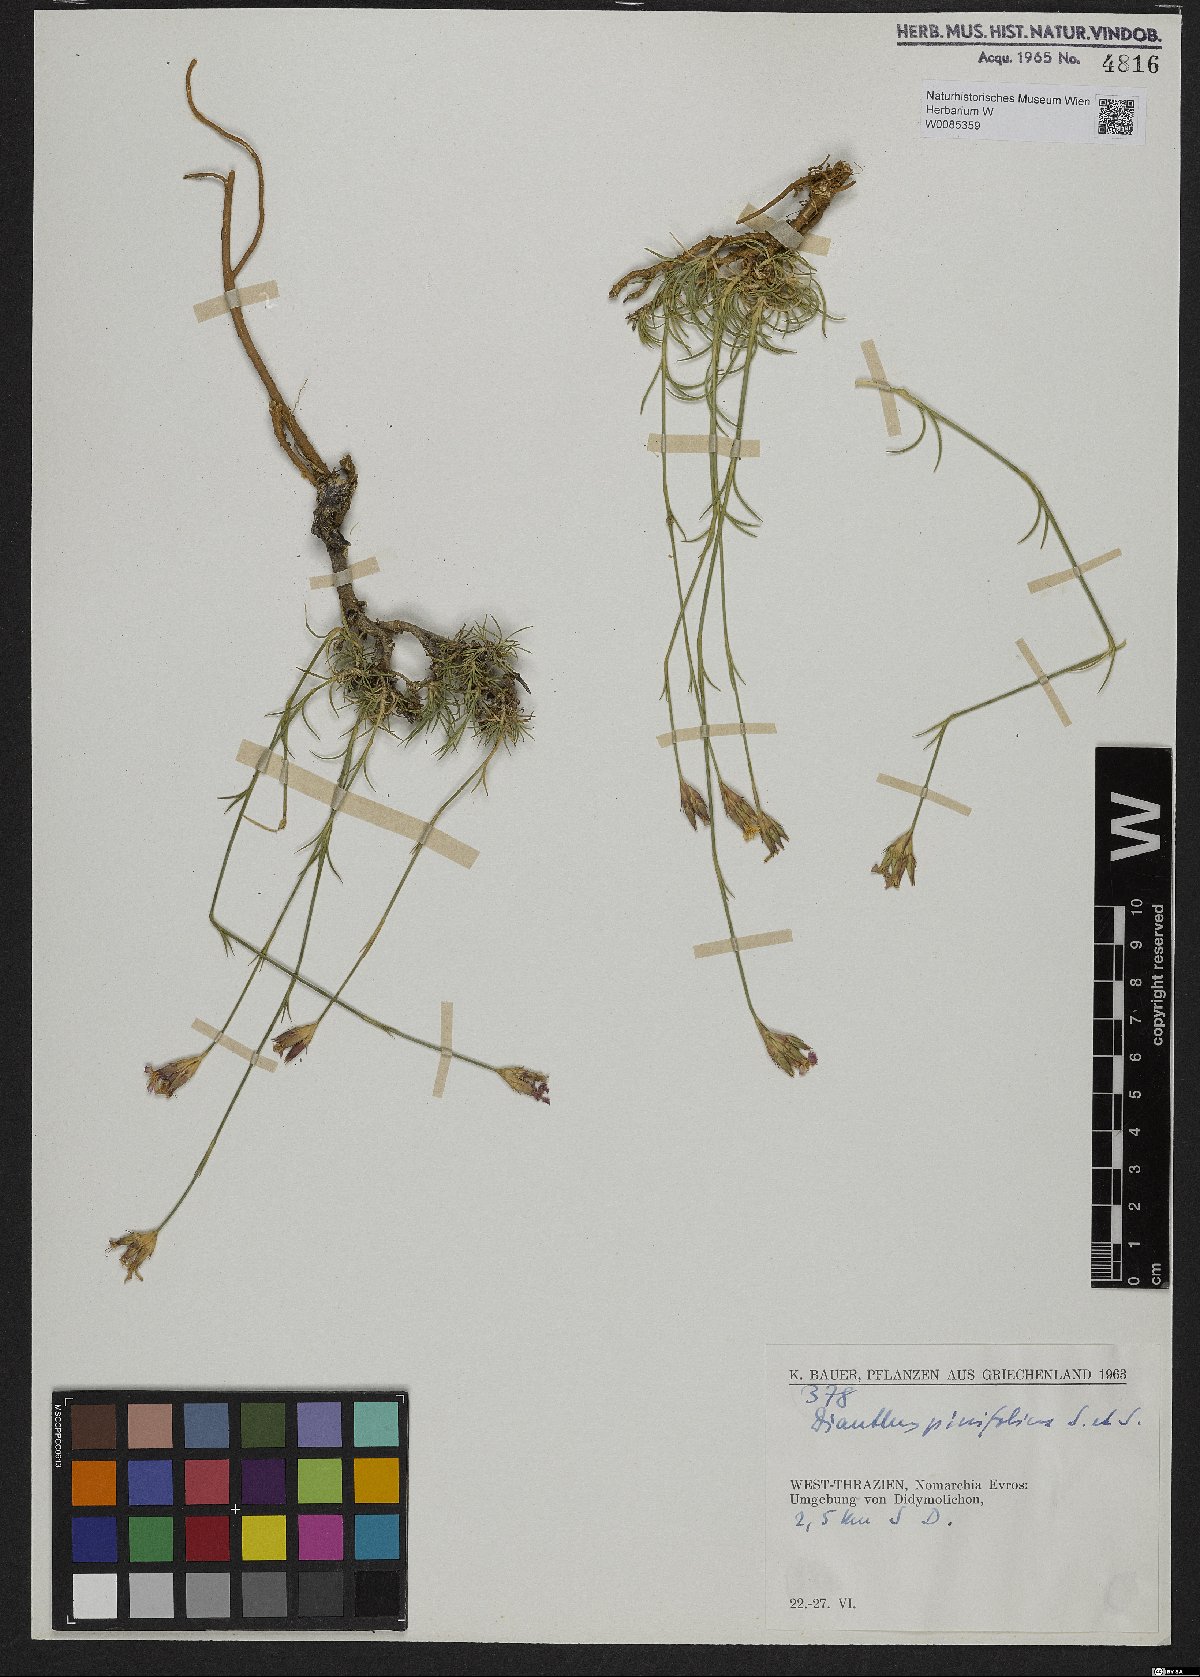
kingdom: Plantae
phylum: Tracheophyta
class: Magnoliopsida
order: Caryophyllales
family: Caryophyllaceae
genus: Dianthus
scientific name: Dianthus pinifolius
